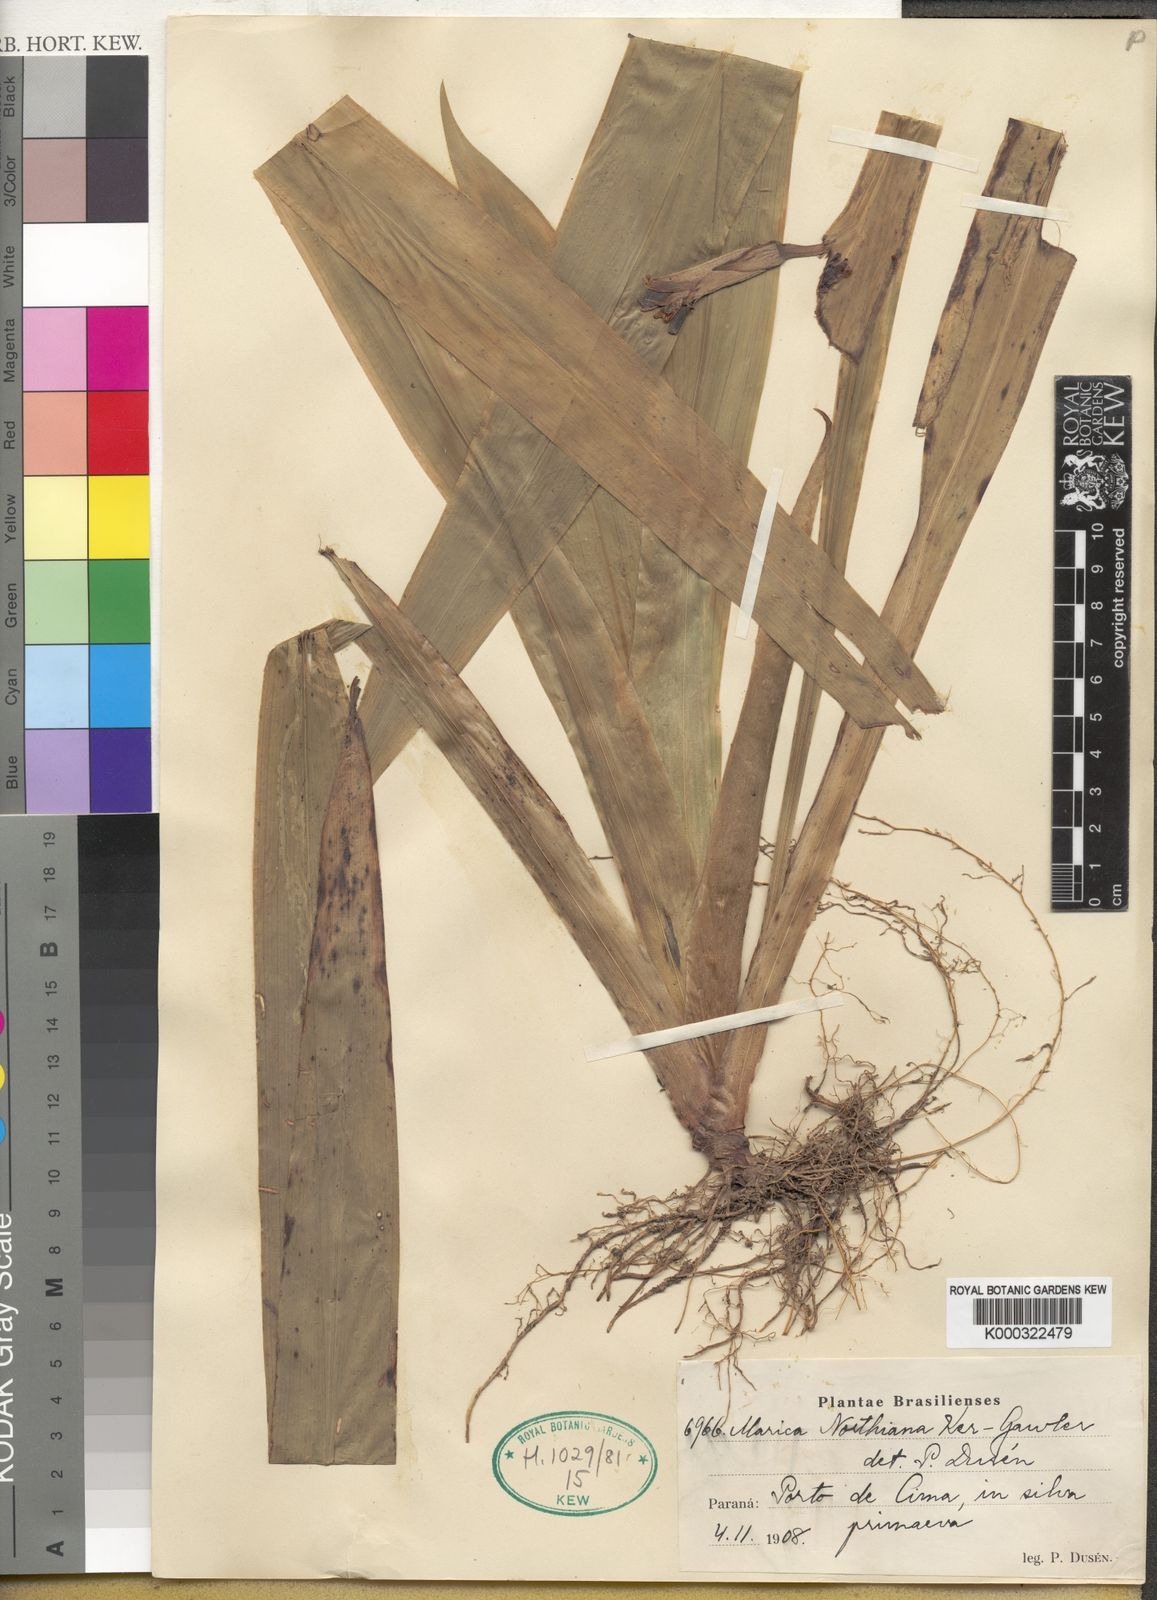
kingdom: Plantae
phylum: Tracheophyta
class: Liliopsida
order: Asparagales
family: Iridaceae
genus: Trimezia
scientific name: Trimezia northiana
